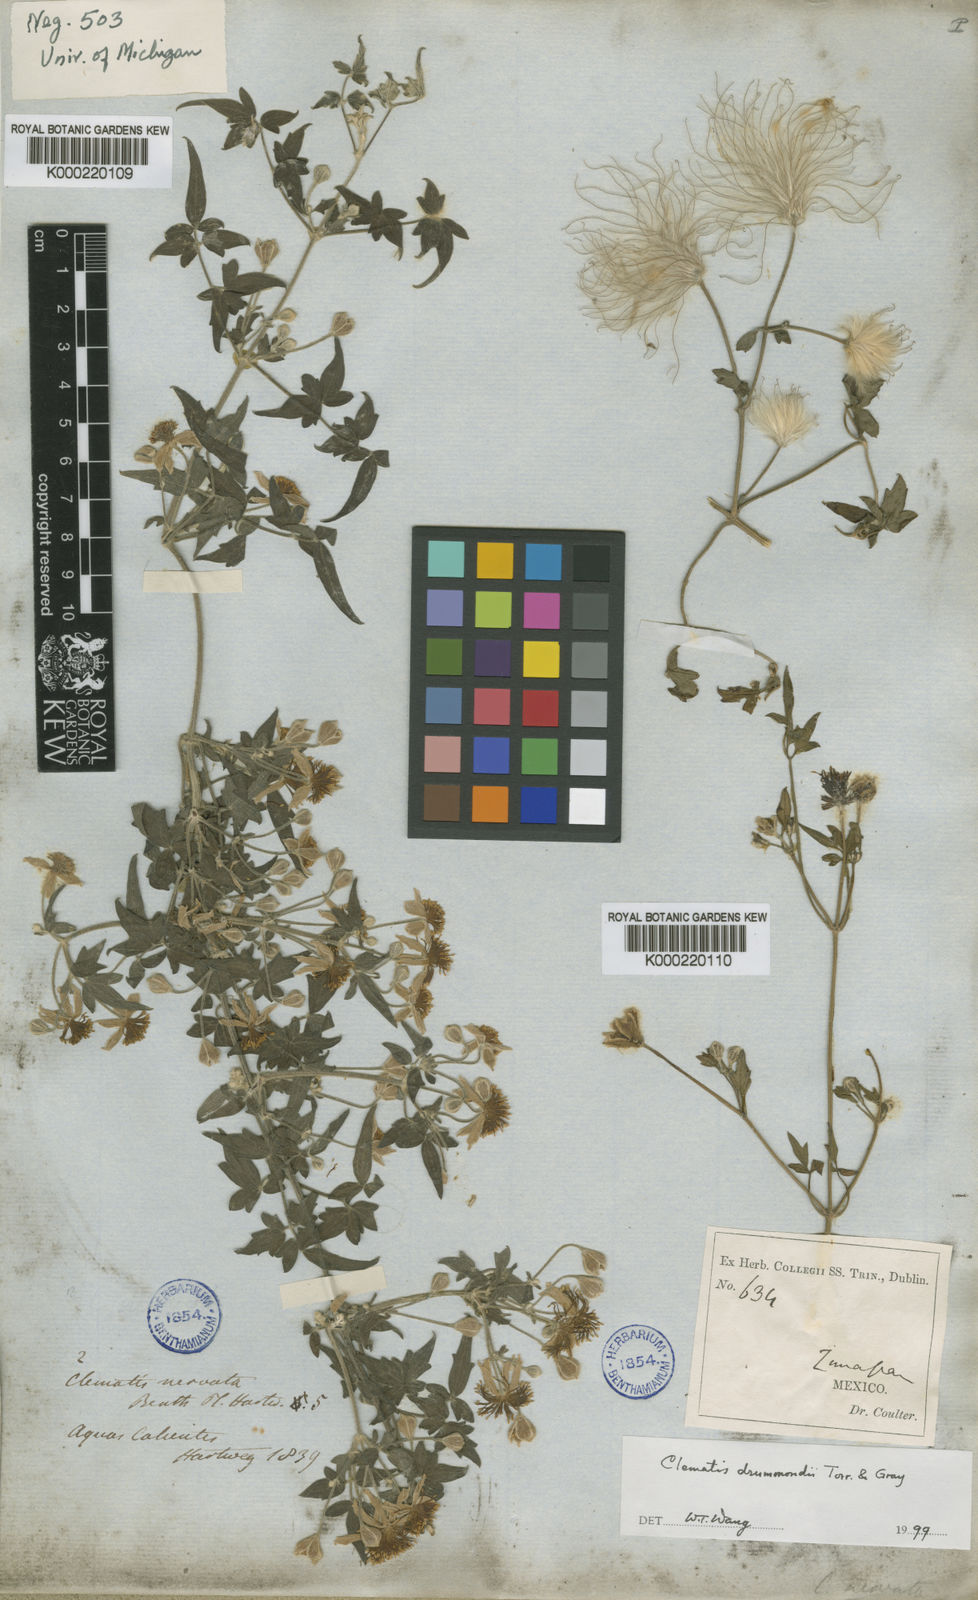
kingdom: Plantae
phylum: Tracheophyta
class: Magnoliopsida
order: Ranunculales
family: Ranunculaceae
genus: Clematis
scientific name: Clematis drummondii
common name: Texas virgin's bower
